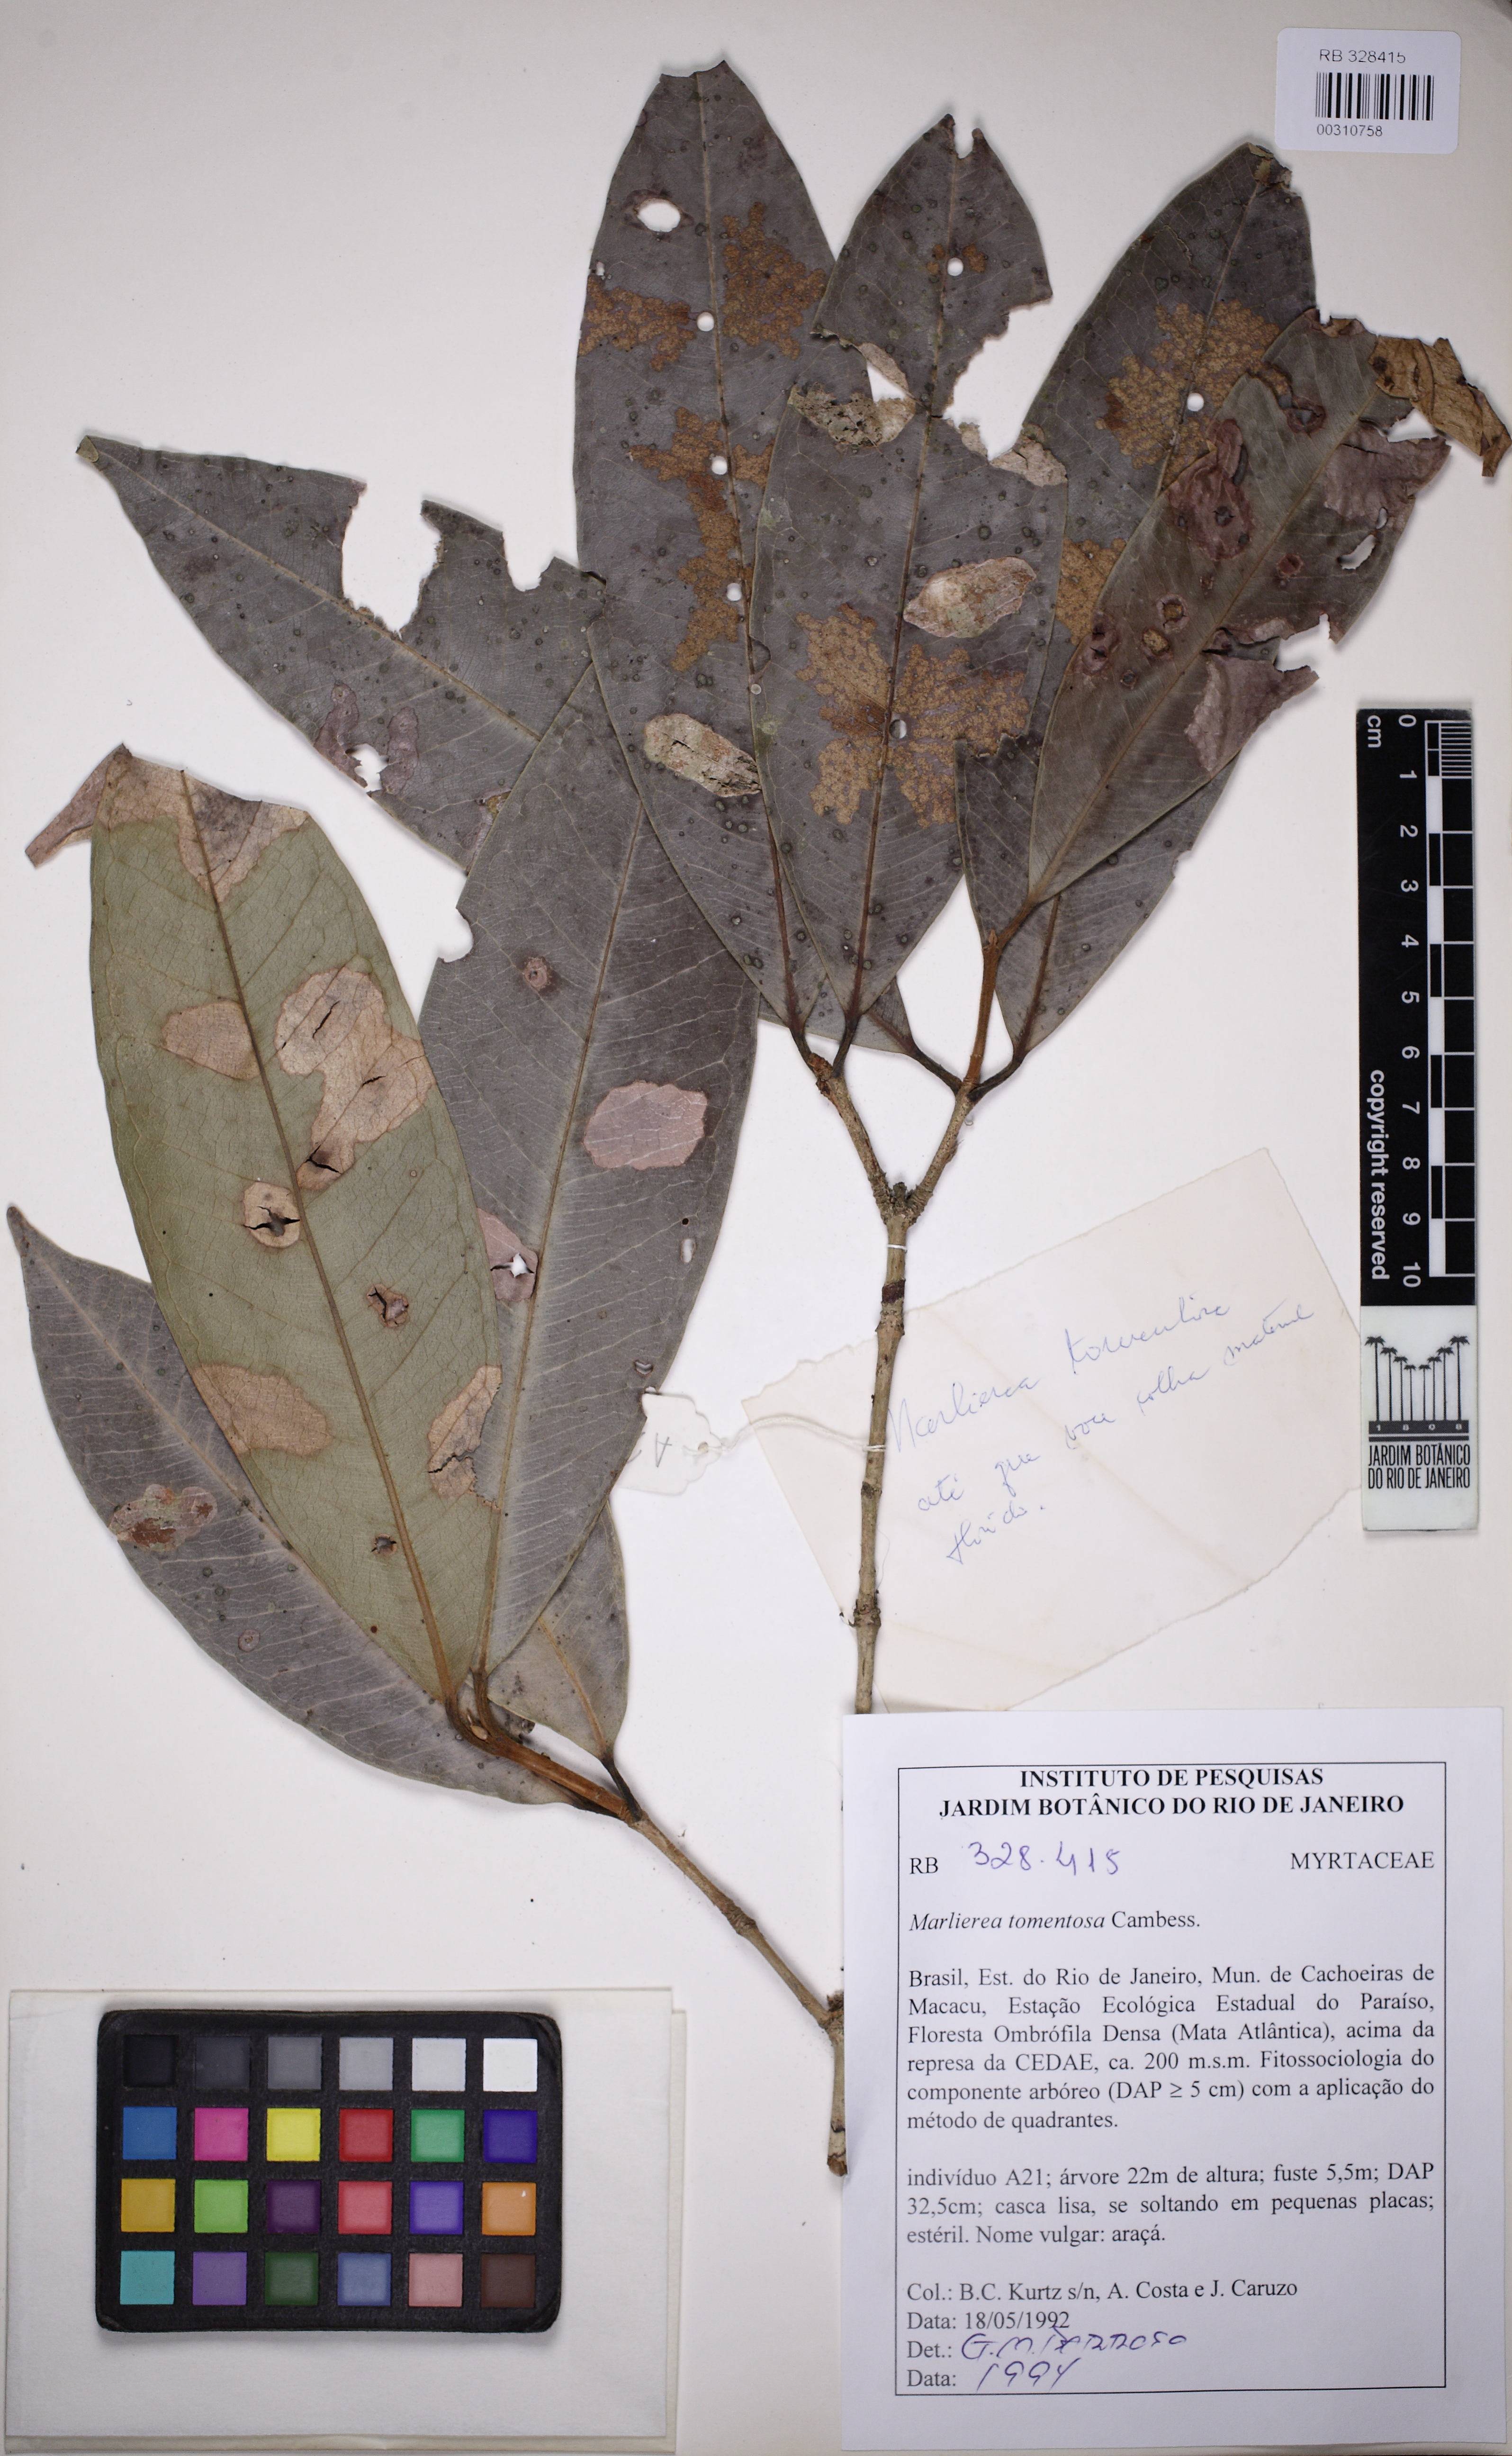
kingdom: Plantae
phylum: Tracheophyta
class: Magnoliopsida
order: Myrtales
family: Myrtaceae
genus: Myrcia
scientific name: Myrcia neotomentosa
